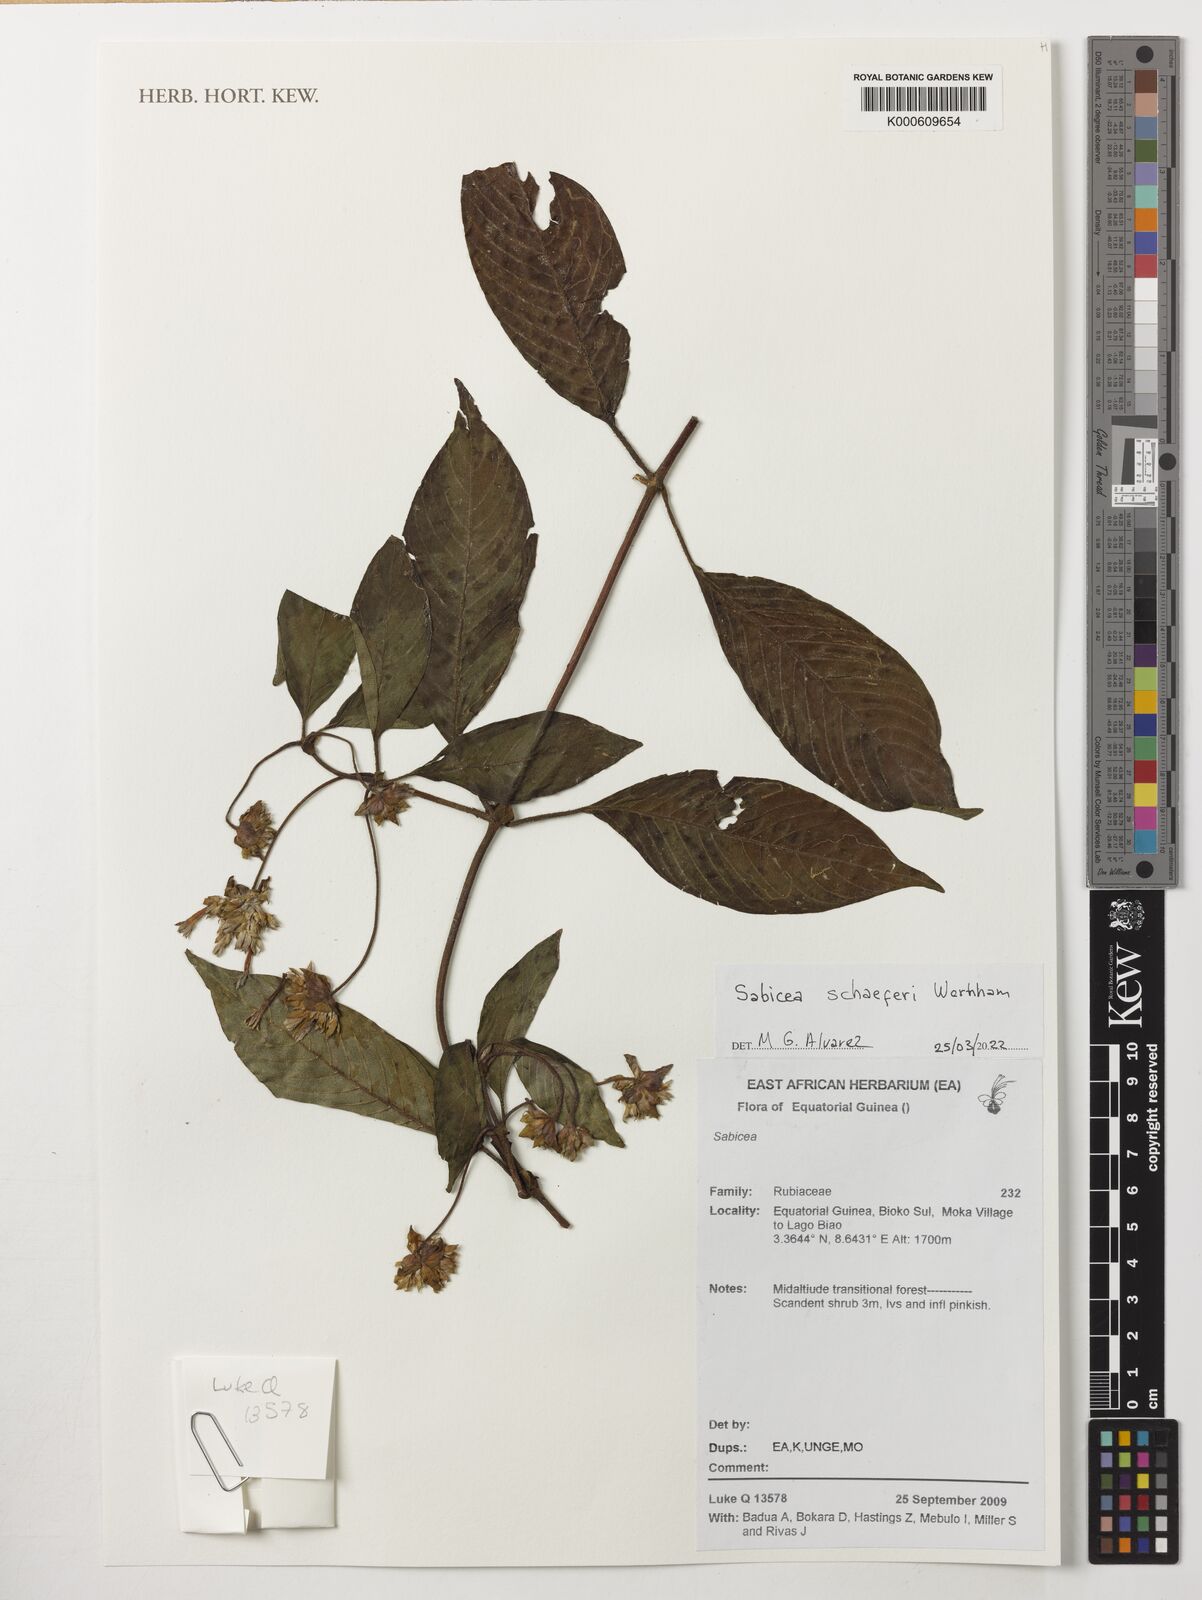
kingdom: Plantae
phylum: Tracheophyta
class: Magnoliopsida
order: Gentianales
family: Rubiaceae
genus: Sabicea
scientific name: Sabicea schaeferi
